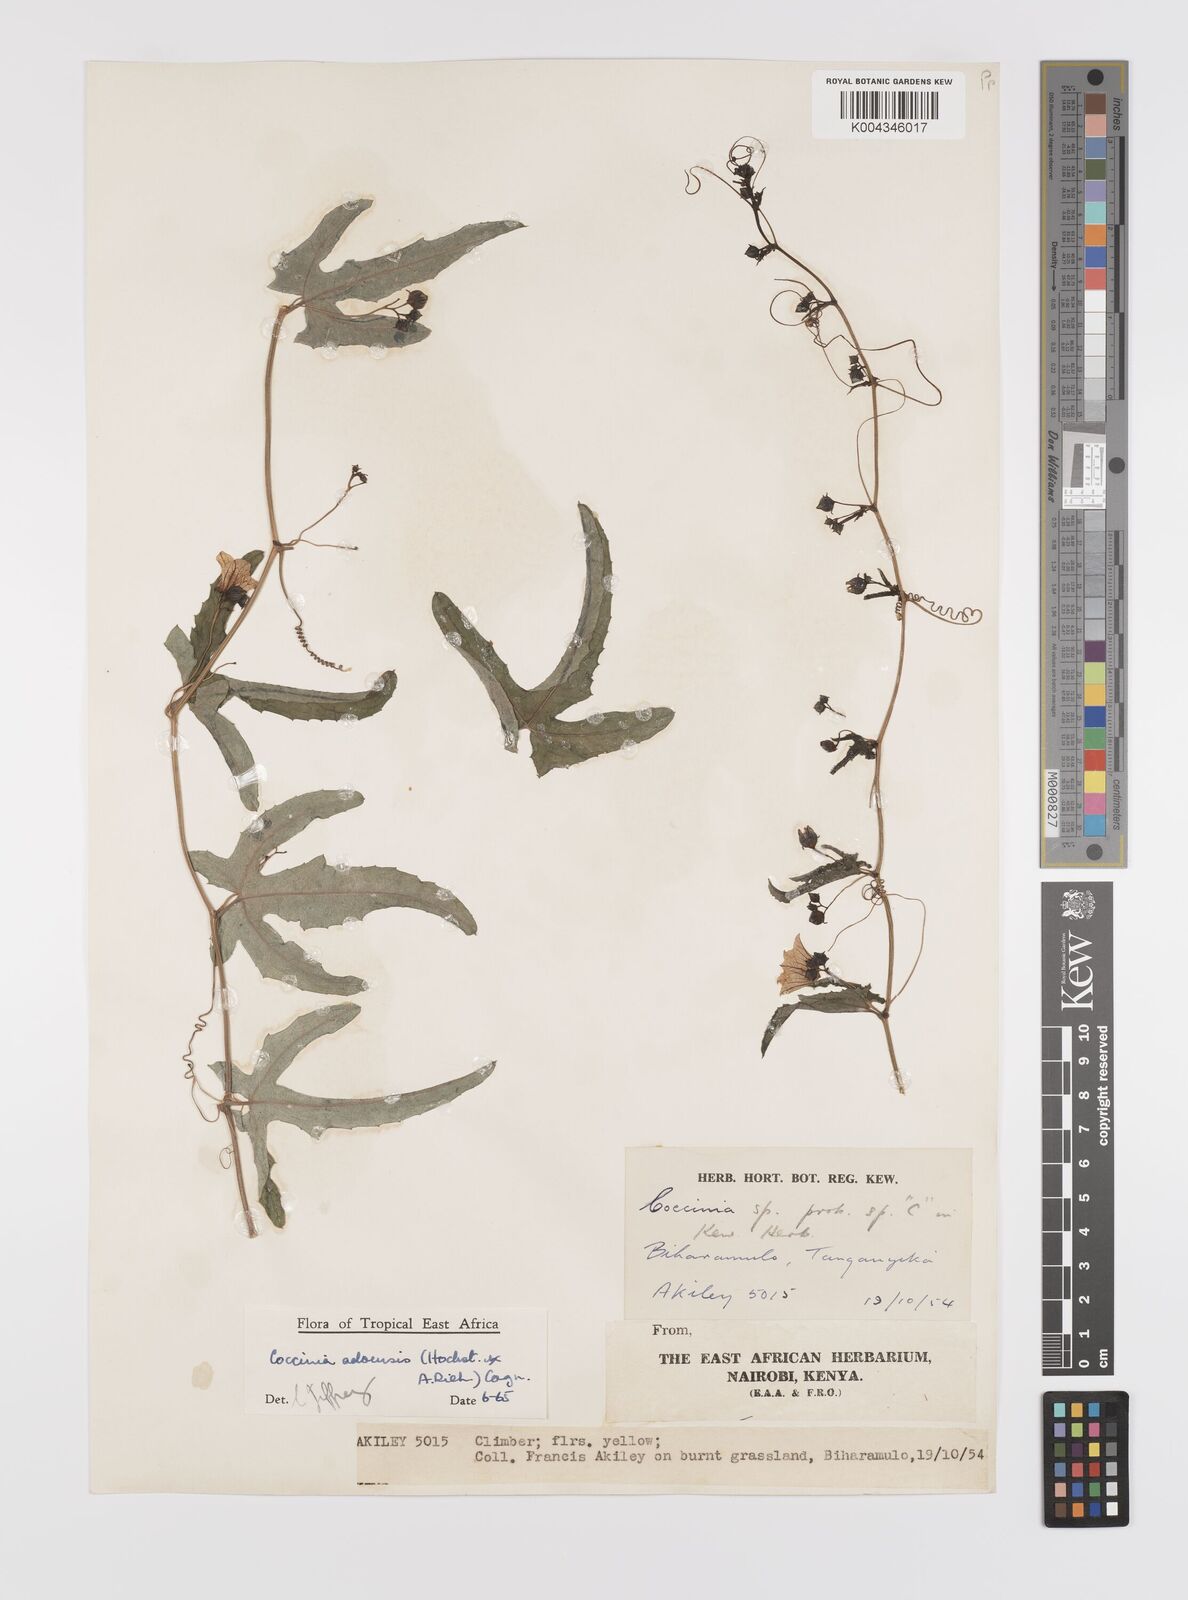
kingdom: Plantae
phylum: Tracheophyta
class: Magnoliopsida
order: Cucurbitales
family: Cucurbitaceae
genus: Coccinia
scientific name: Coccinia adoensis
